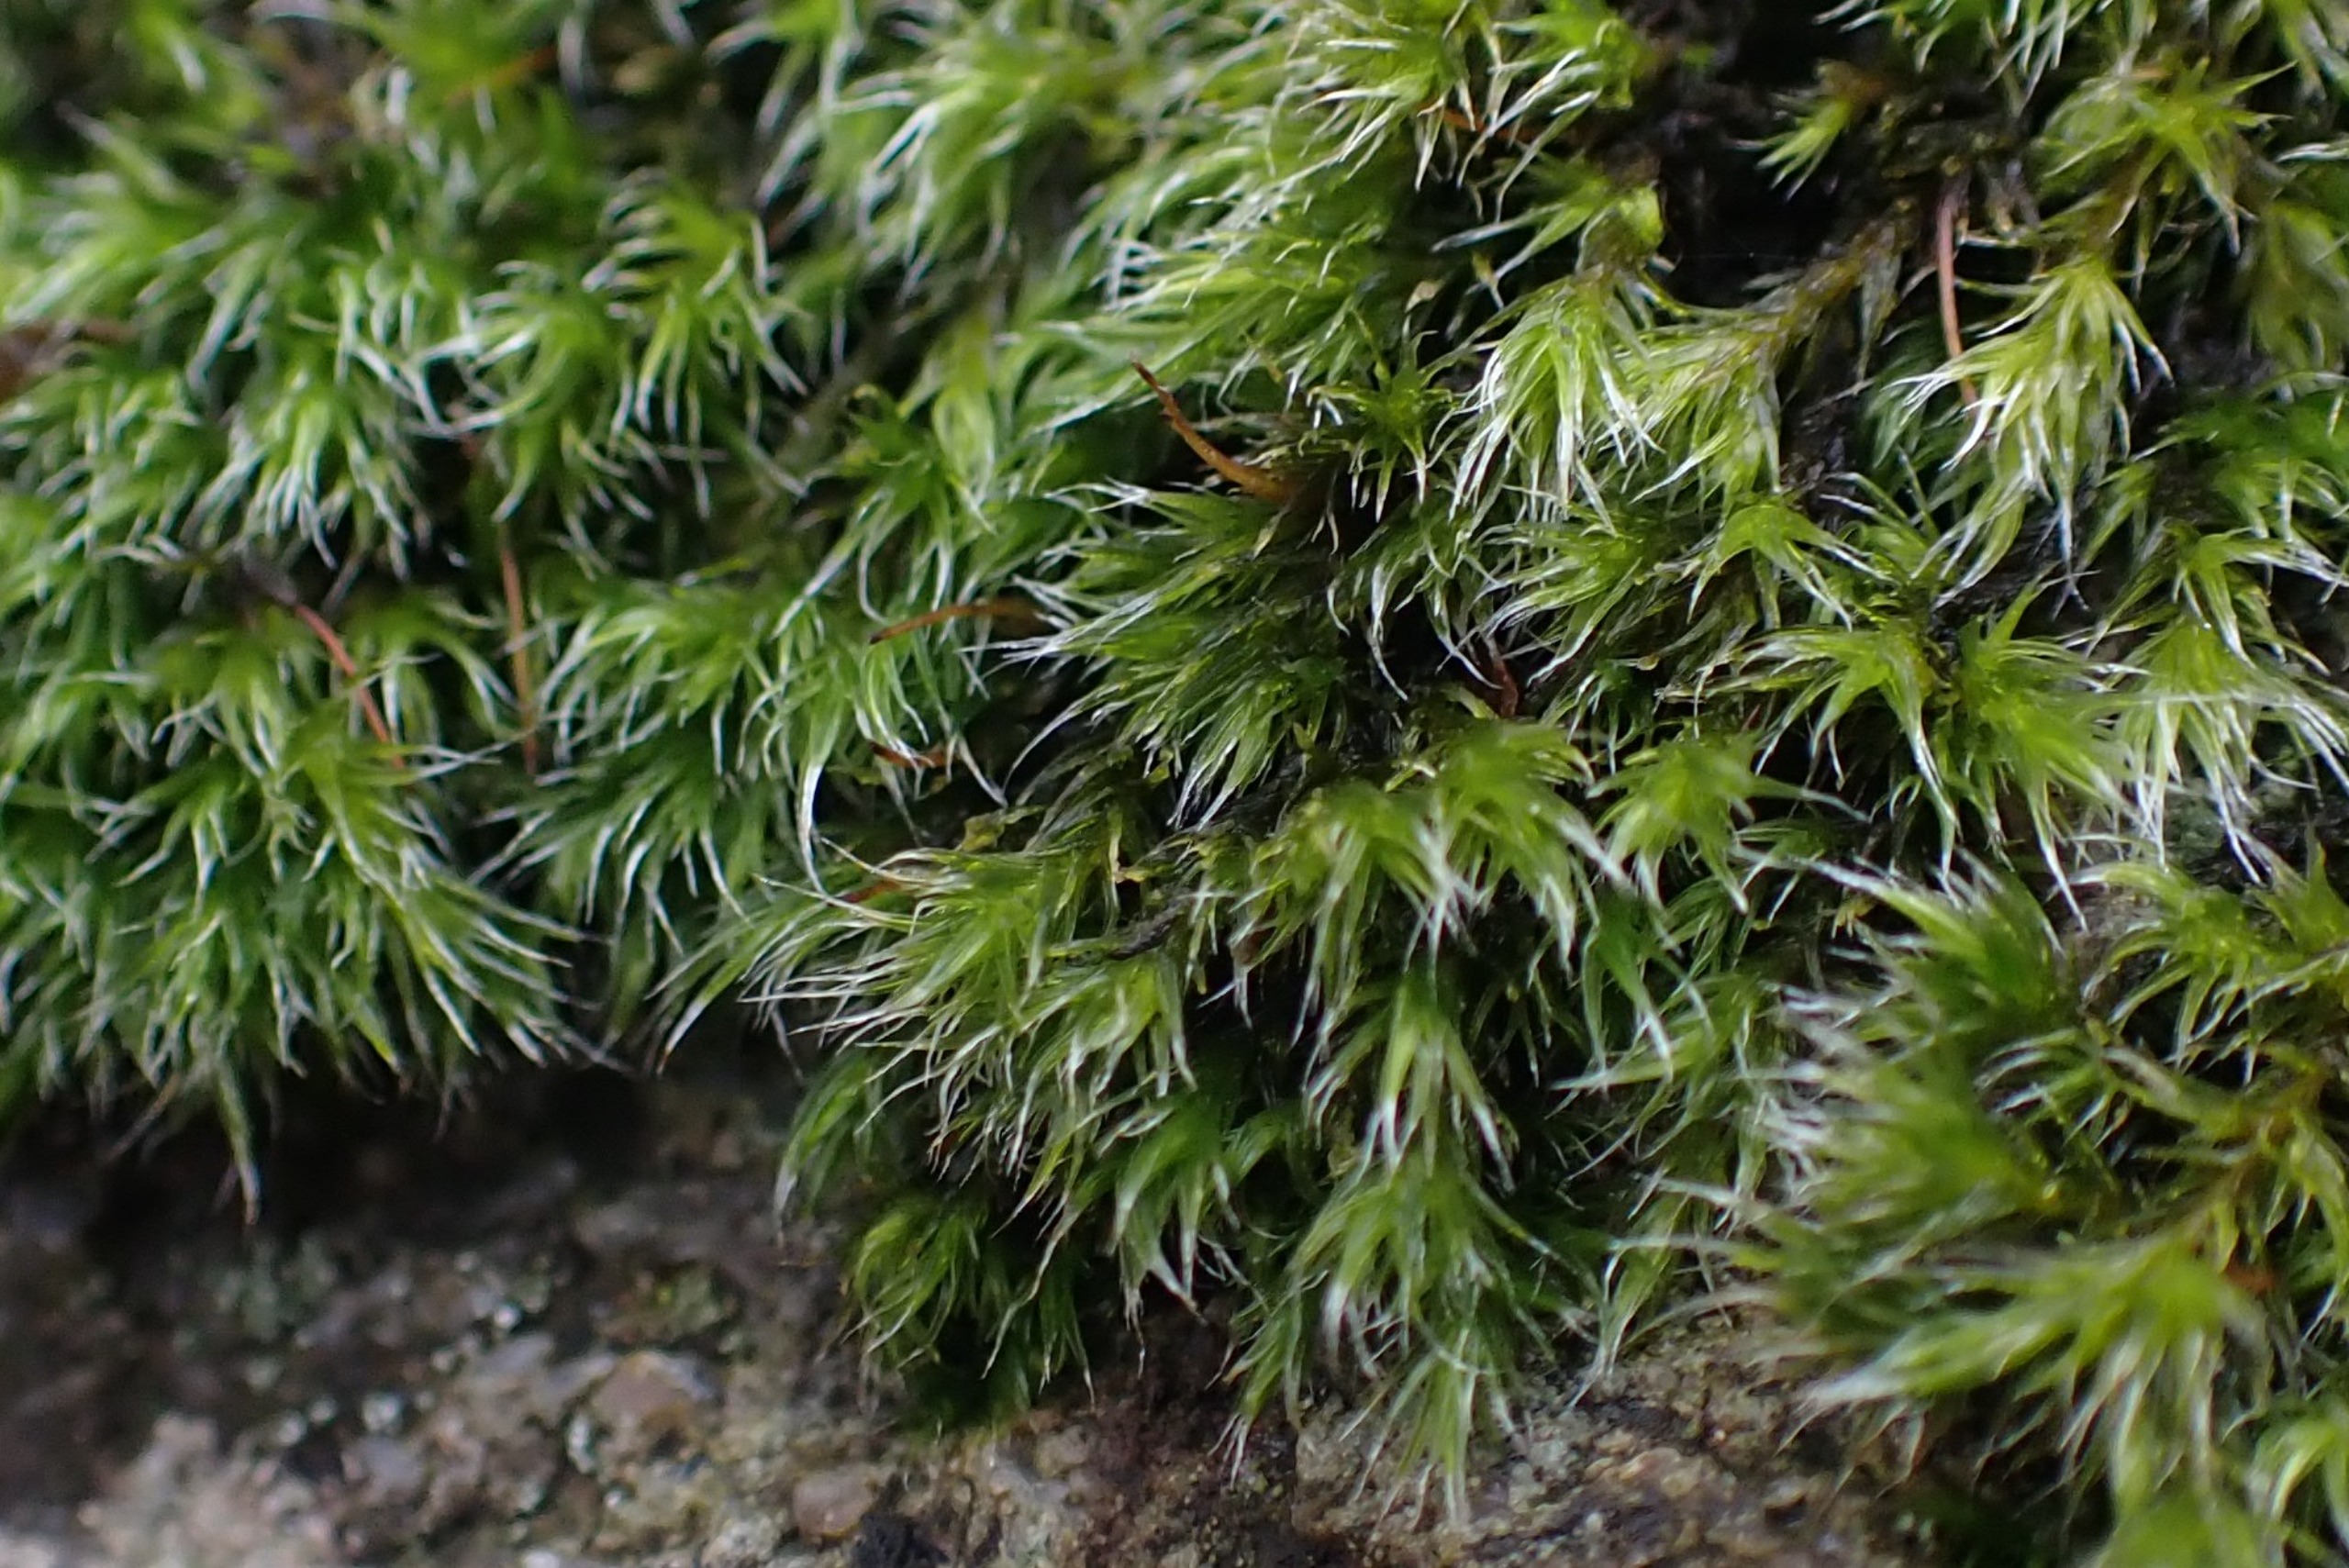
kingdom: Plantae
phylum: Bryophyta
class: Bryopsida
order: Grimmiales
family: Grimmiaceae
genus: Bucklandiella
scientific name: Bucklandiella heterosticha
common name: Sten-børstemos
